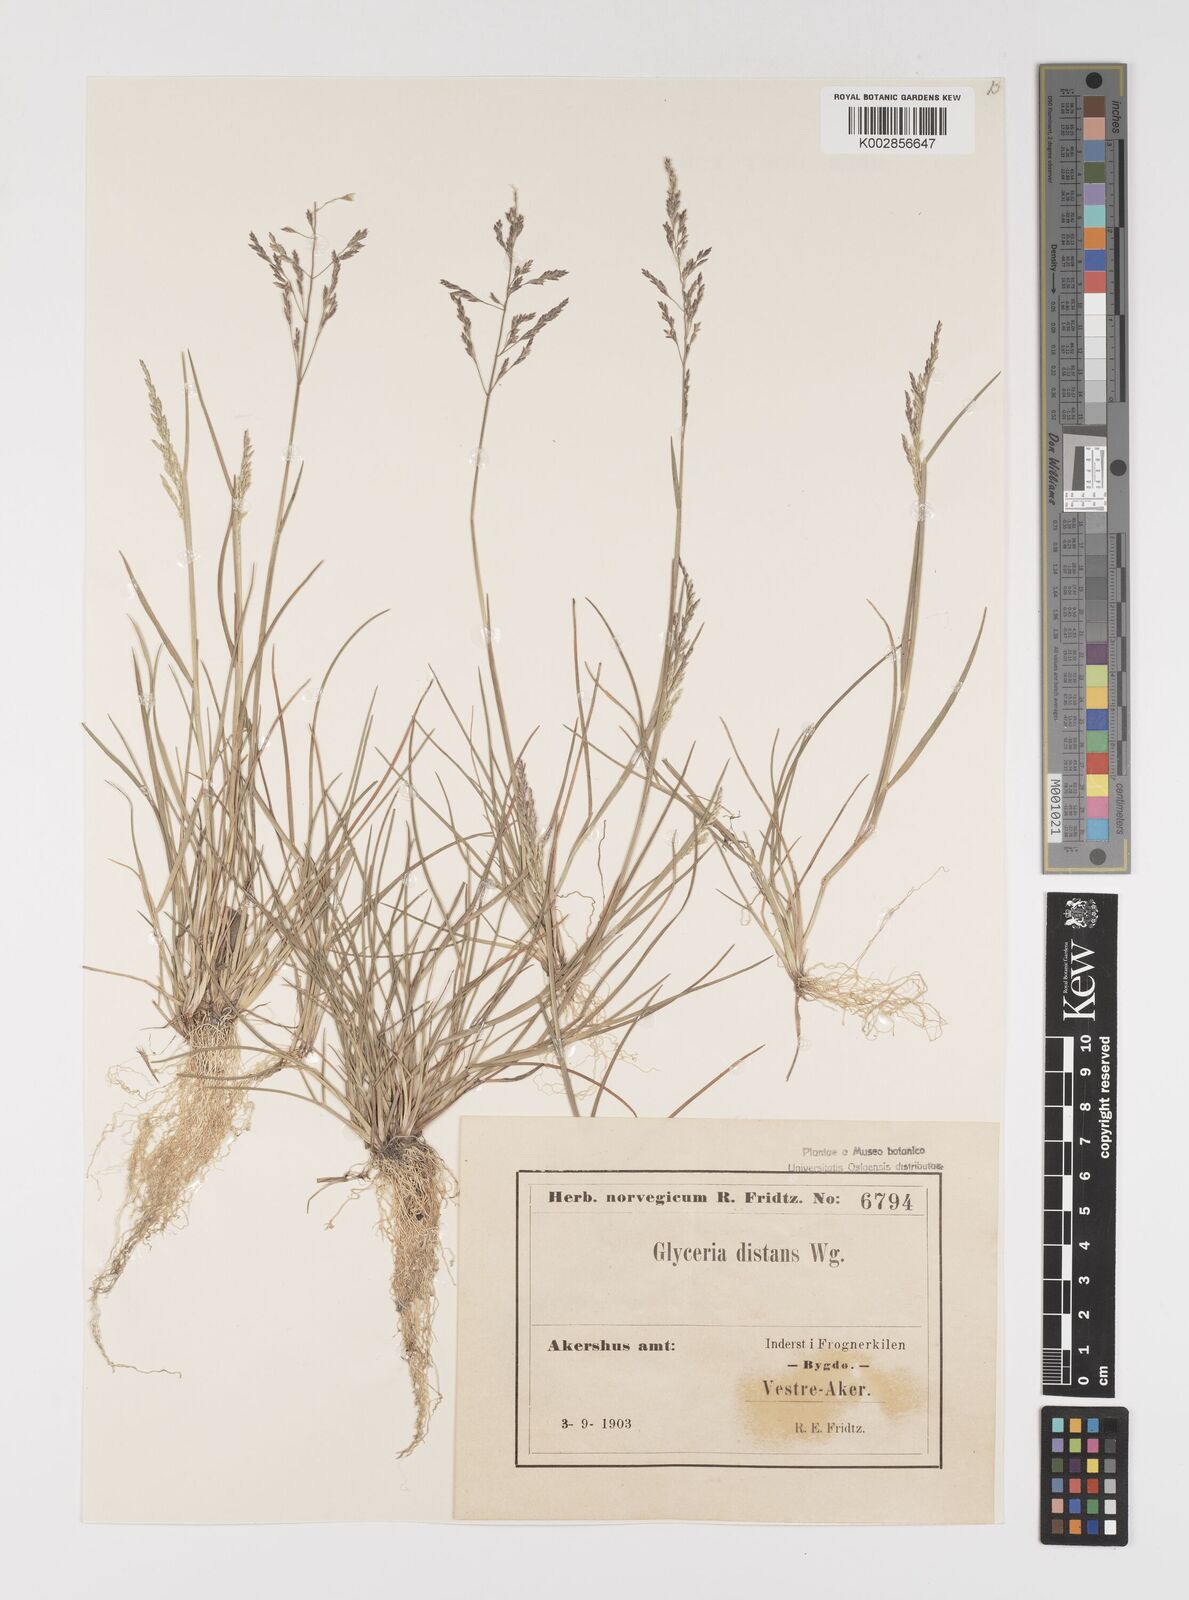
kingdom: Plantae
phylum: Tracheophyta
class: Liliopsida
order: Poales
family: Poaceae
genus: Puccinellia
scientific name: Puccinellia
